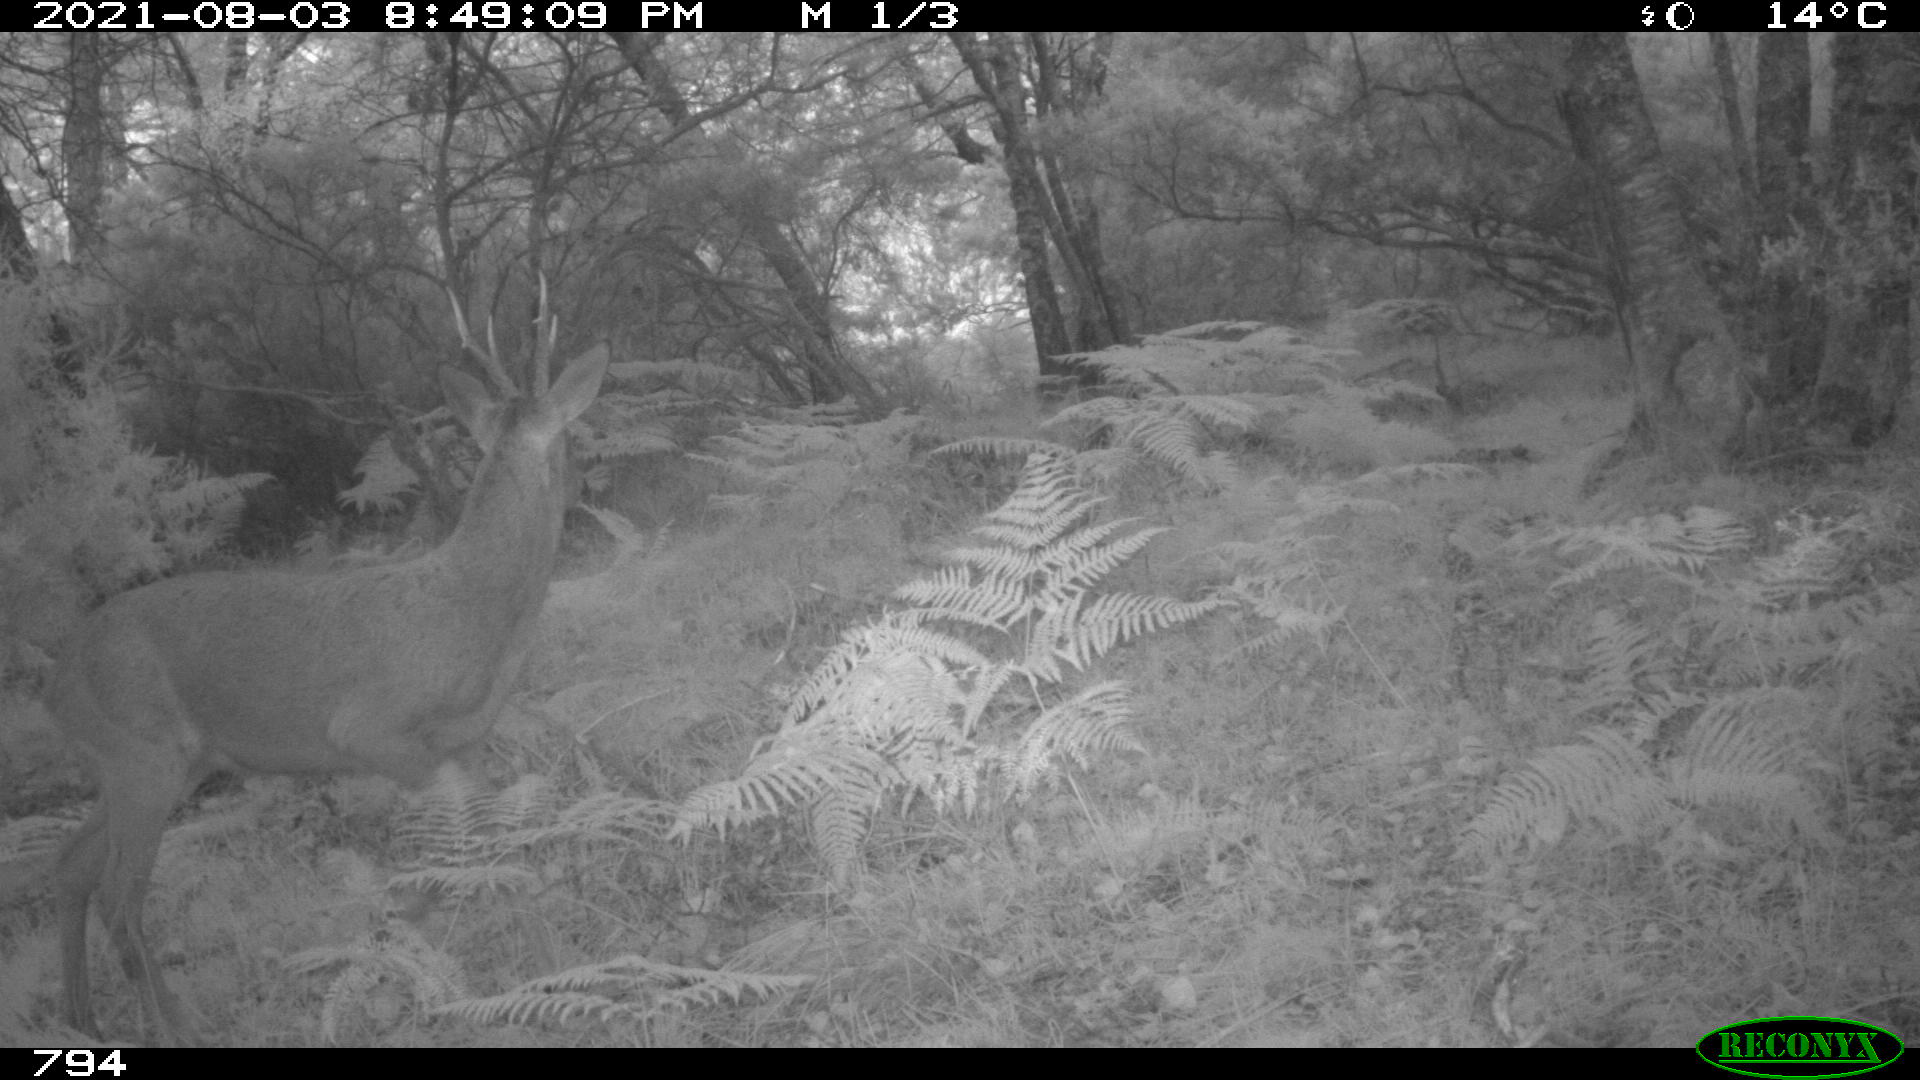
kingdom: Animalia
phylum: Chordata
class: Mammalia
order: Artiodactyla
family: Cervidae
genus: Capreolus
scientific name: Capreolus capreolus
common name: Western roe deer
